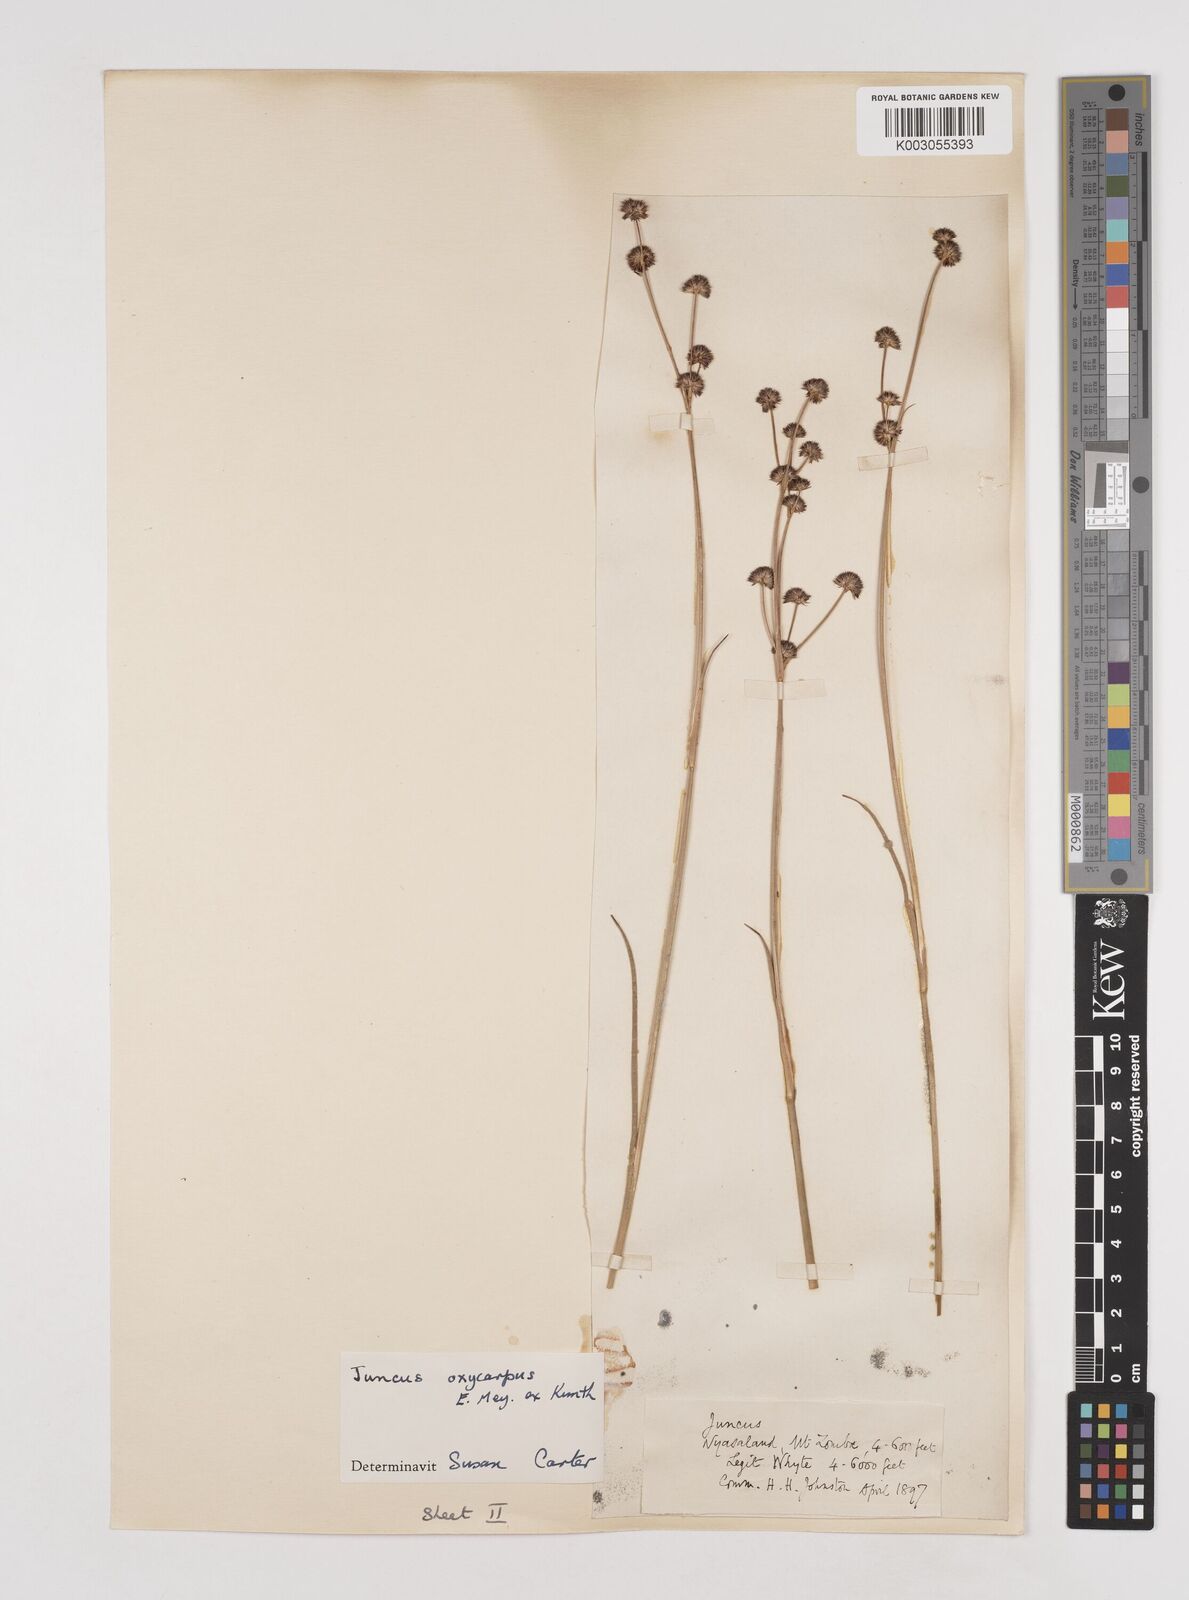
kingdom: Plantae
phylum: Tracheophyta
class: Liliopsida
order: Poales
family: Juncaceae
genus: Juncus
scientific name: Juncus oxycarpus
